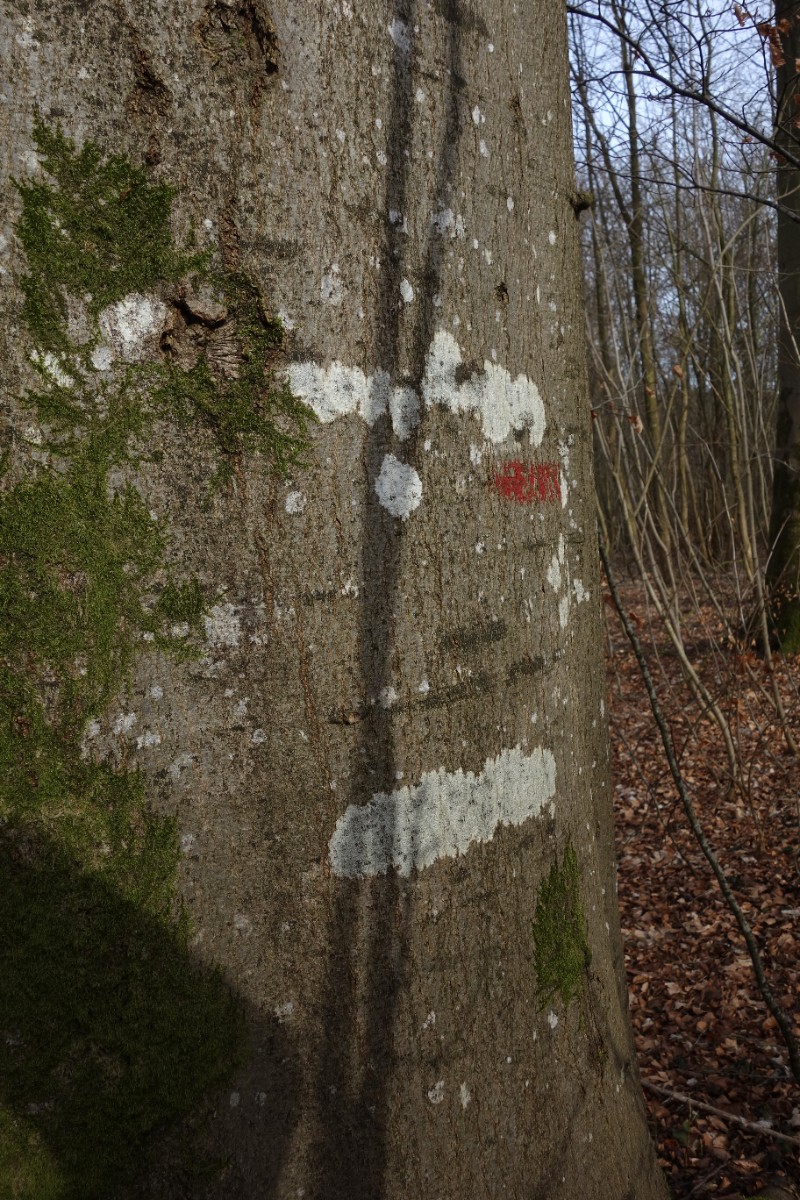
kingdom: Fungi
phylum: Ascomycota
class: Lecanoromycetes
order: Ostropales
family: Graphidaceae
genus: Graphis
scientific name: Graphis scripta
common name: almindelig skriftlav
